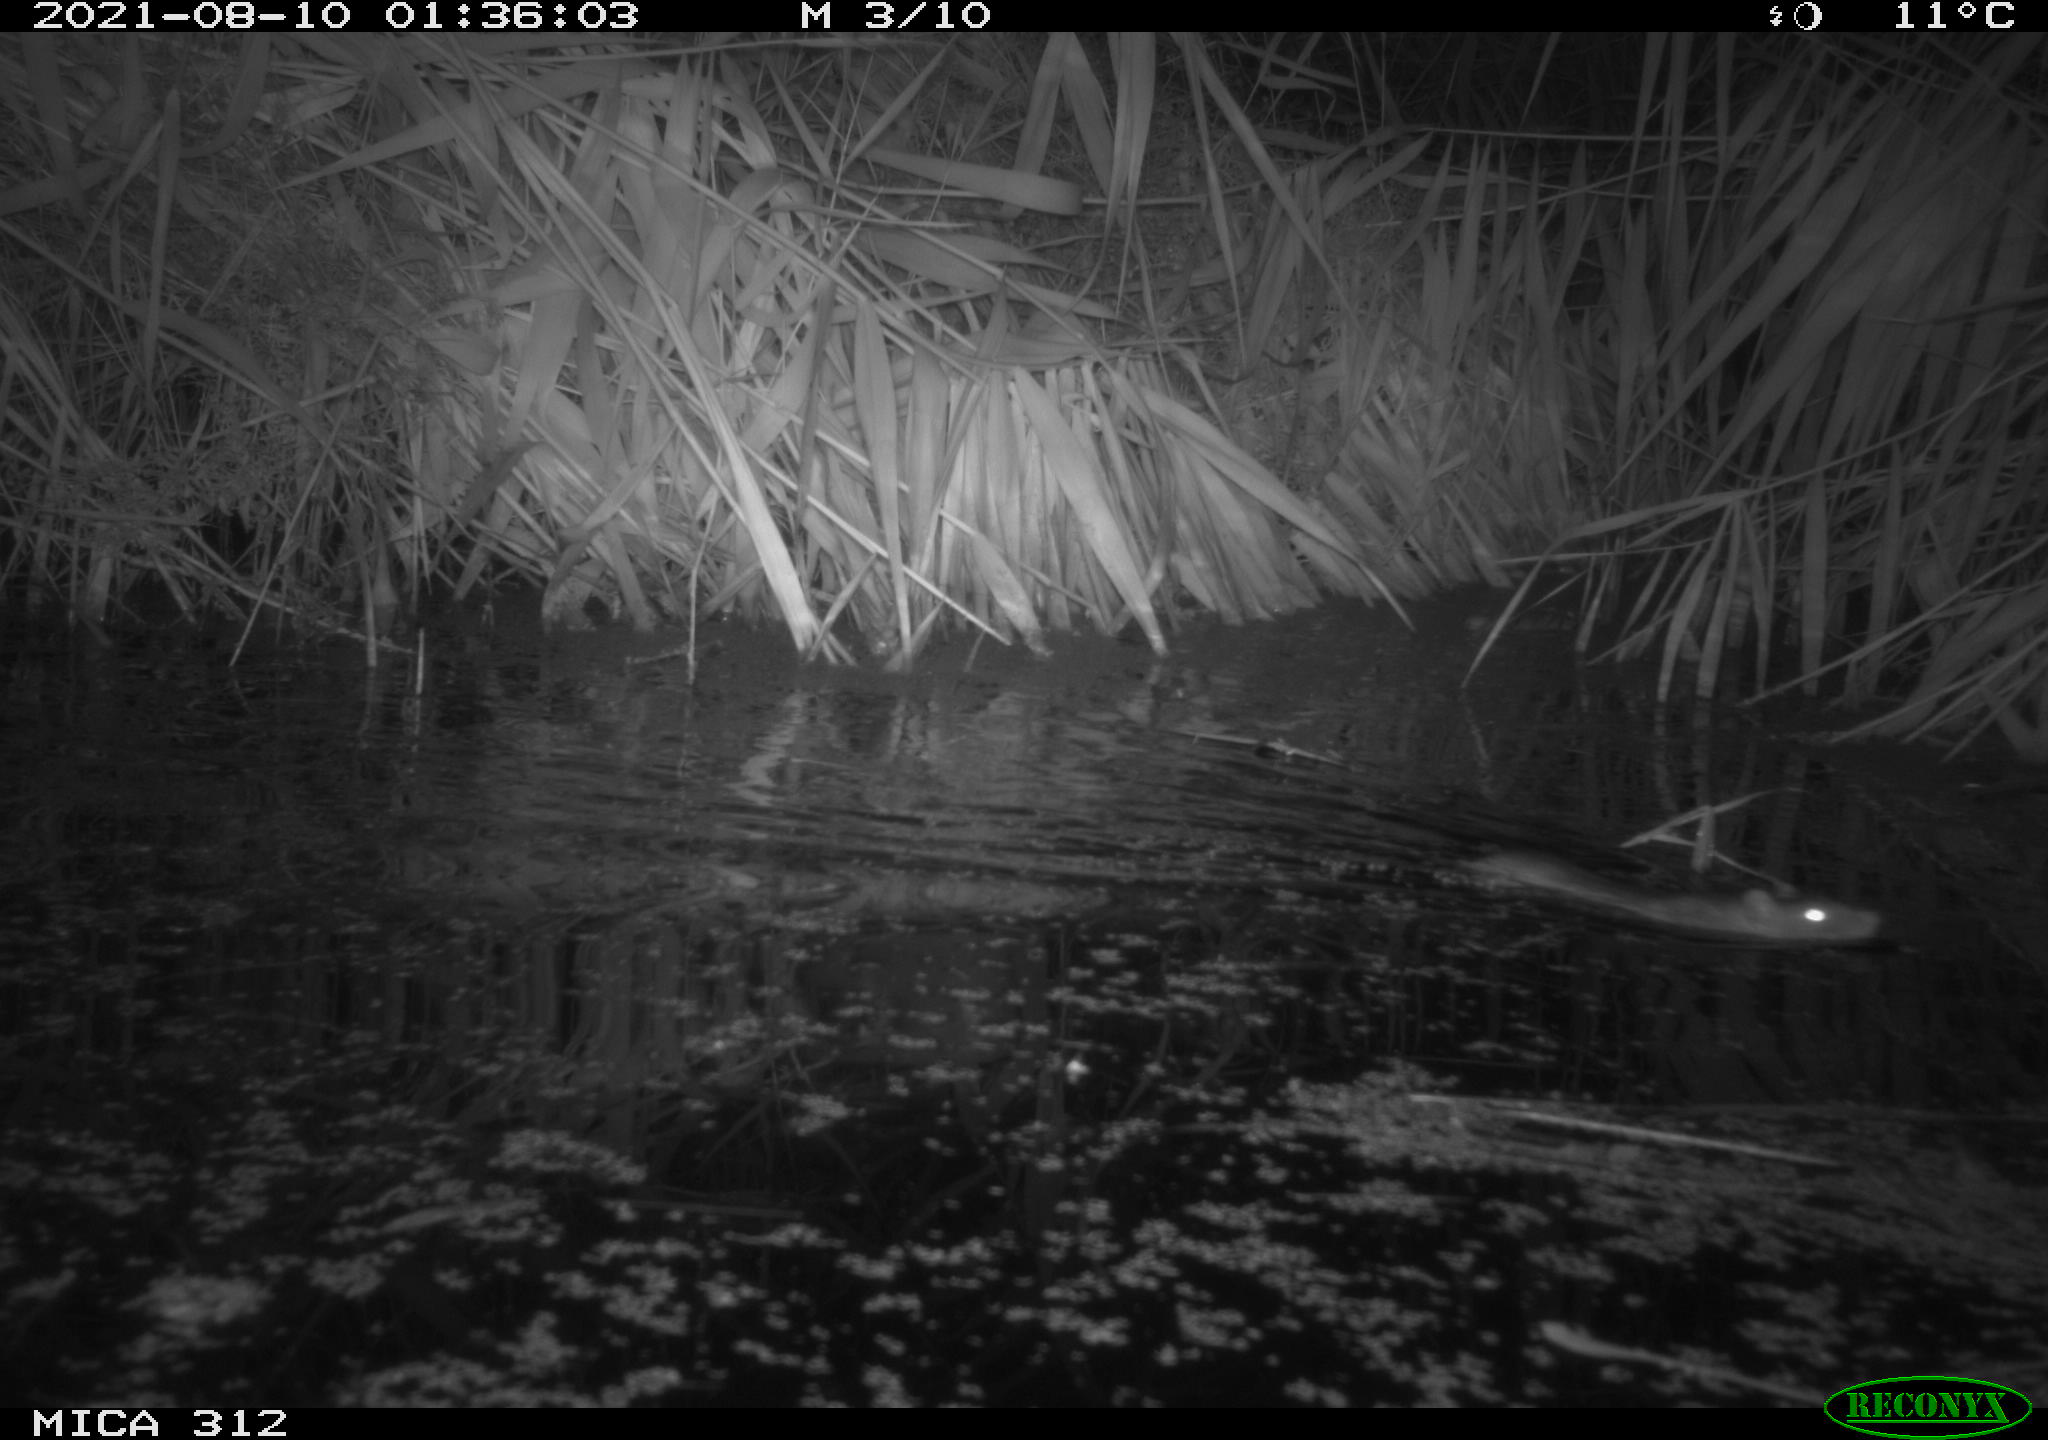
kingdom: Animalia
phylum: Chordata
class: Mammalia
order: Rodentia
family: Muridae
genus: Rattus
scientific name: Rattus norvegicus
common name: Brown rat
